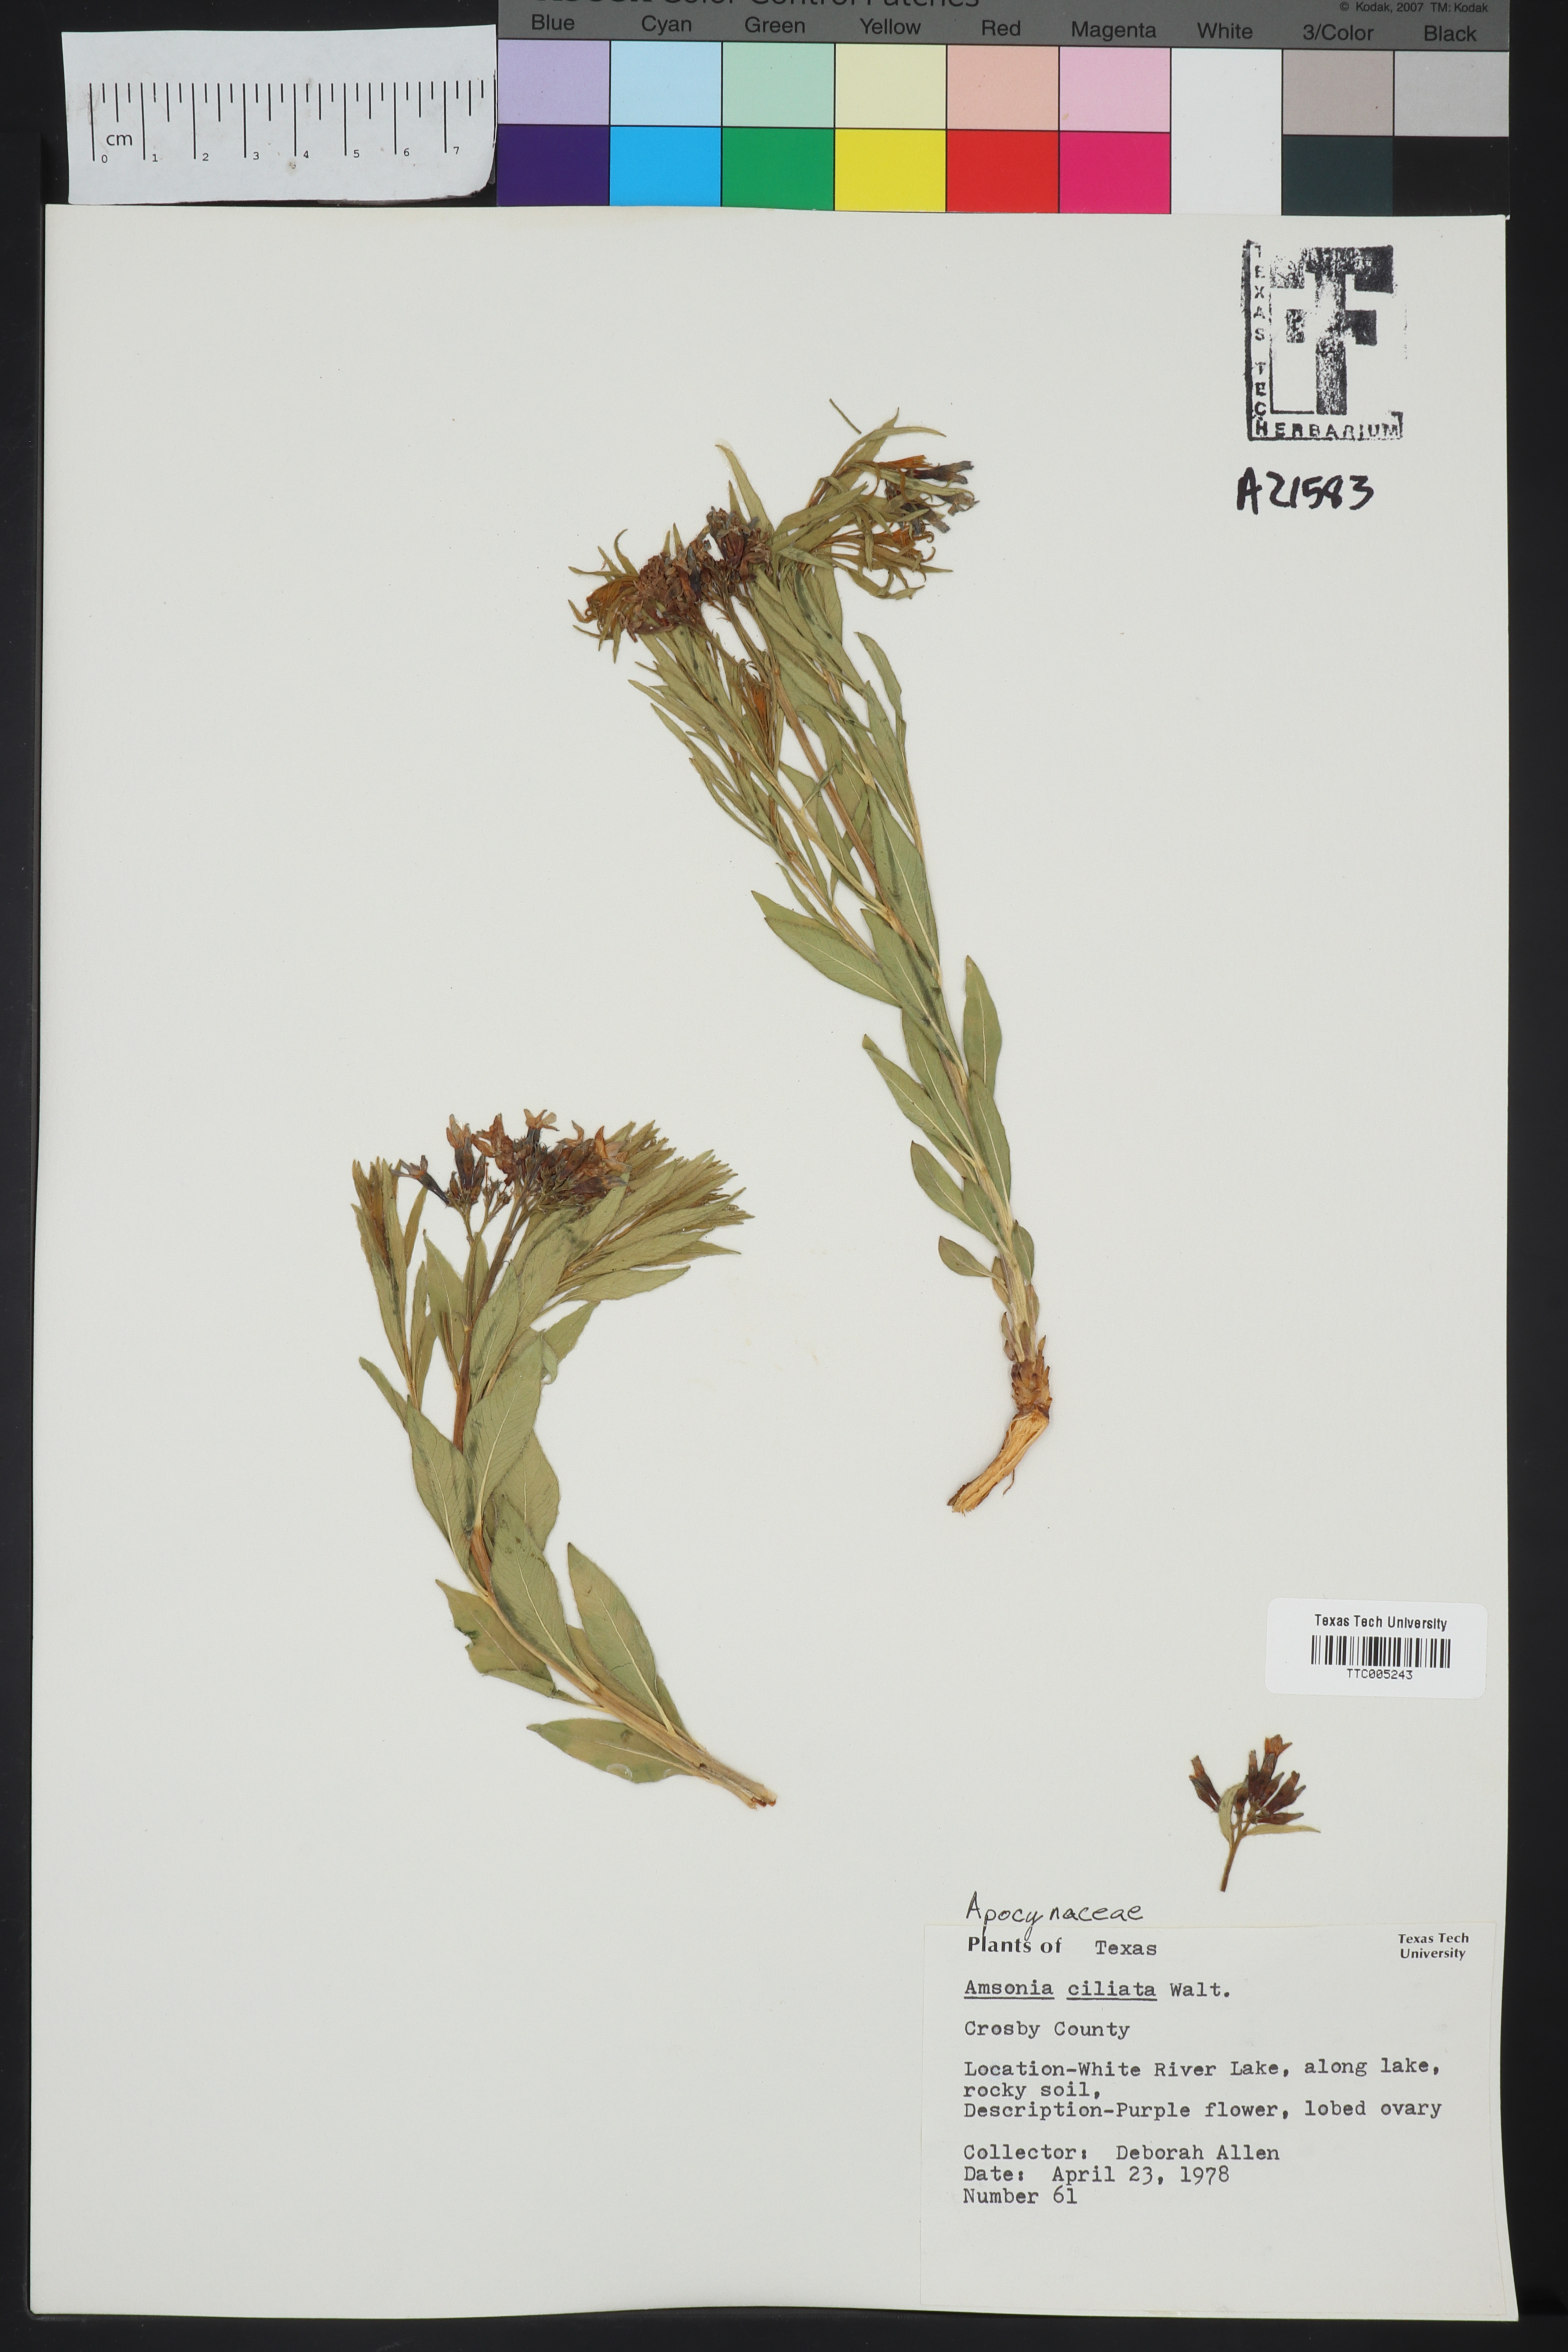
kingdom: Plantae
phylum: Tracheophyta
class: Magnoliopsida
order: Gentianales
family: Apocynaceae
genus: Amsonia
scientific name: Amsonia ciliata
